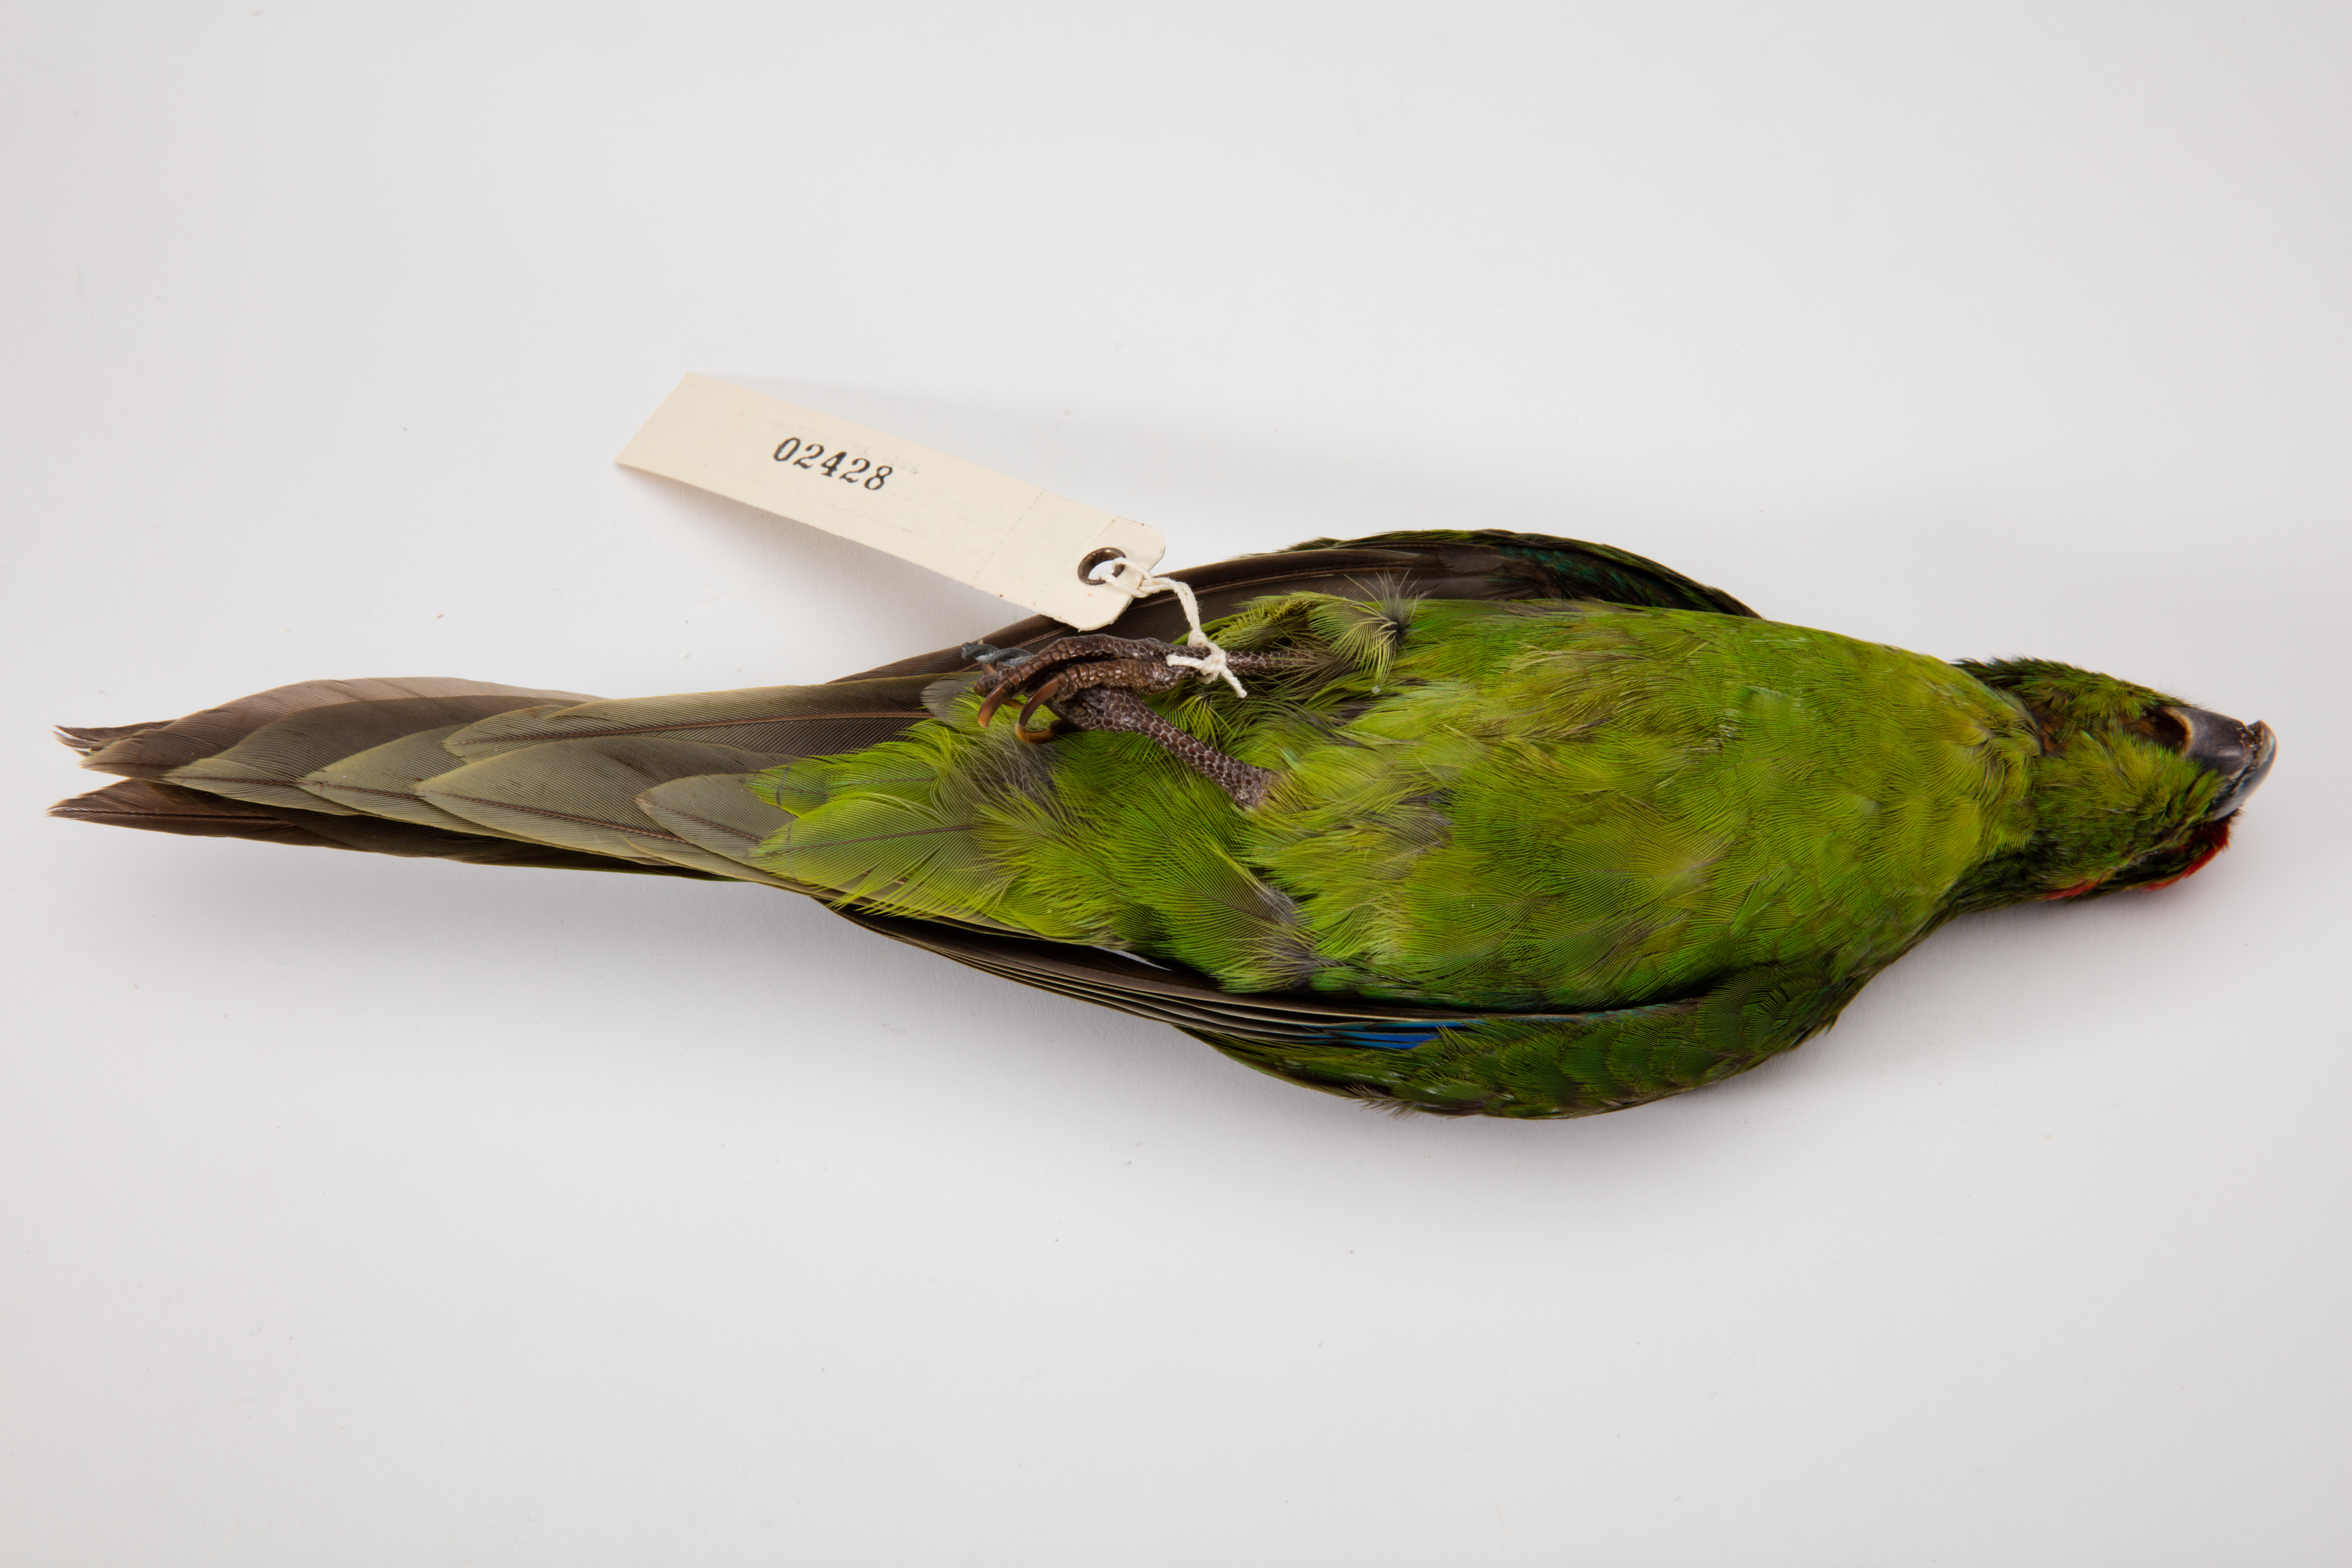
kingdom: Animalia
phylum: Chordata
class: Aves
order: Psittaciformes
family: Psittacidae
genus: Cyanoramphus
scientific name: Cyanoramphus novaezelandiae
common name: Red-fronted parakeet
